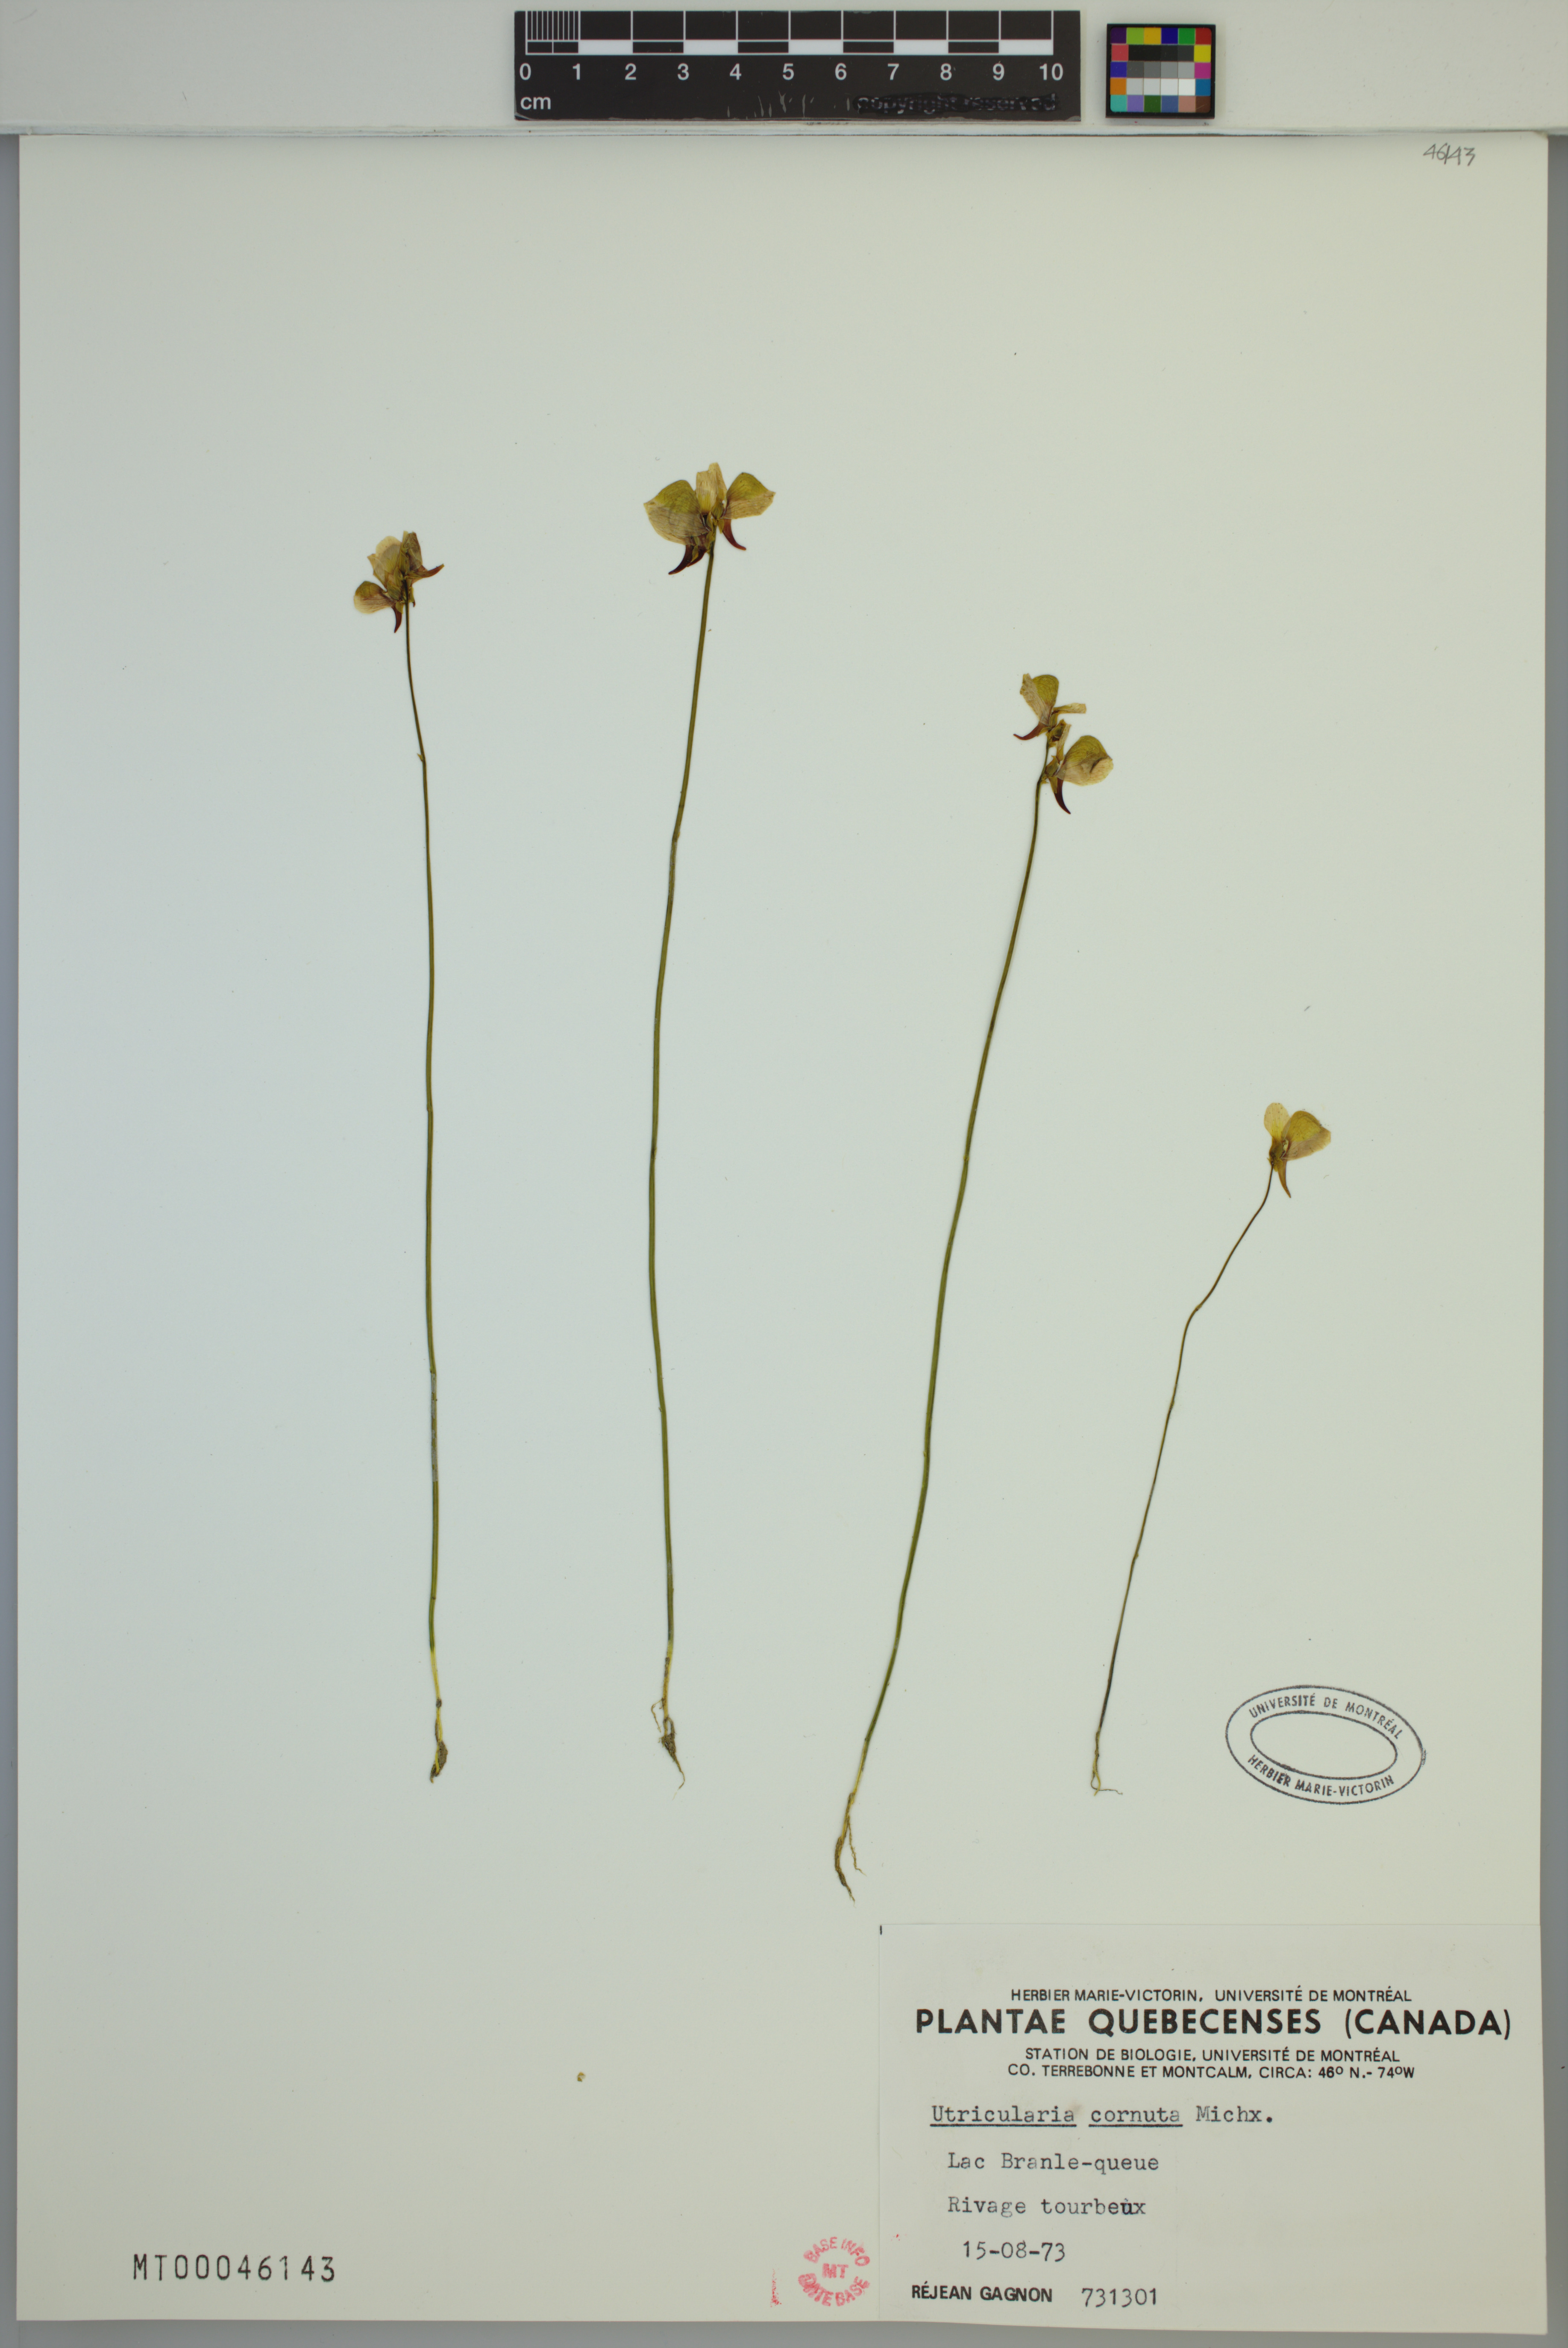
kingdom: Plantae
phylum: Tracheophyta
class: Magnoliopsida
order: Lamiales
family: Lentibulariaceae
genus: Utricularia
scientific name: Utricularia cornuta
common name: Horned bladderwort
